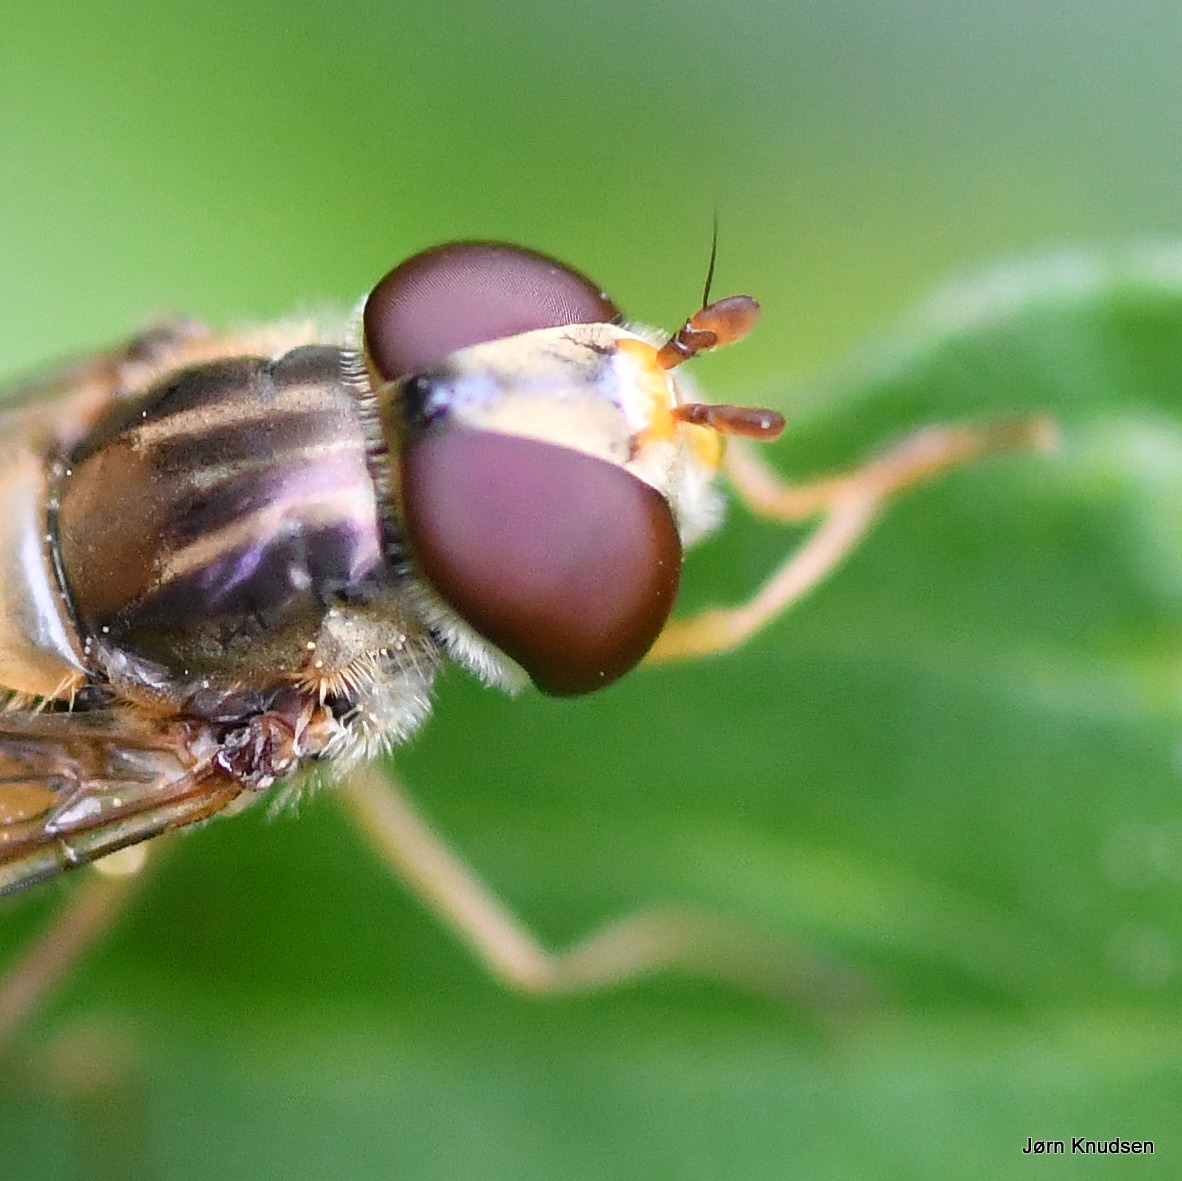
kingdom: Animalia
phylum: Arthropoda
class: Insecta
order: Diptera
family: Syrphidae
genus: Episyrphus
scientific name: Episyrphus balteatus
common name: Dobbeltbåndet svirreflue
